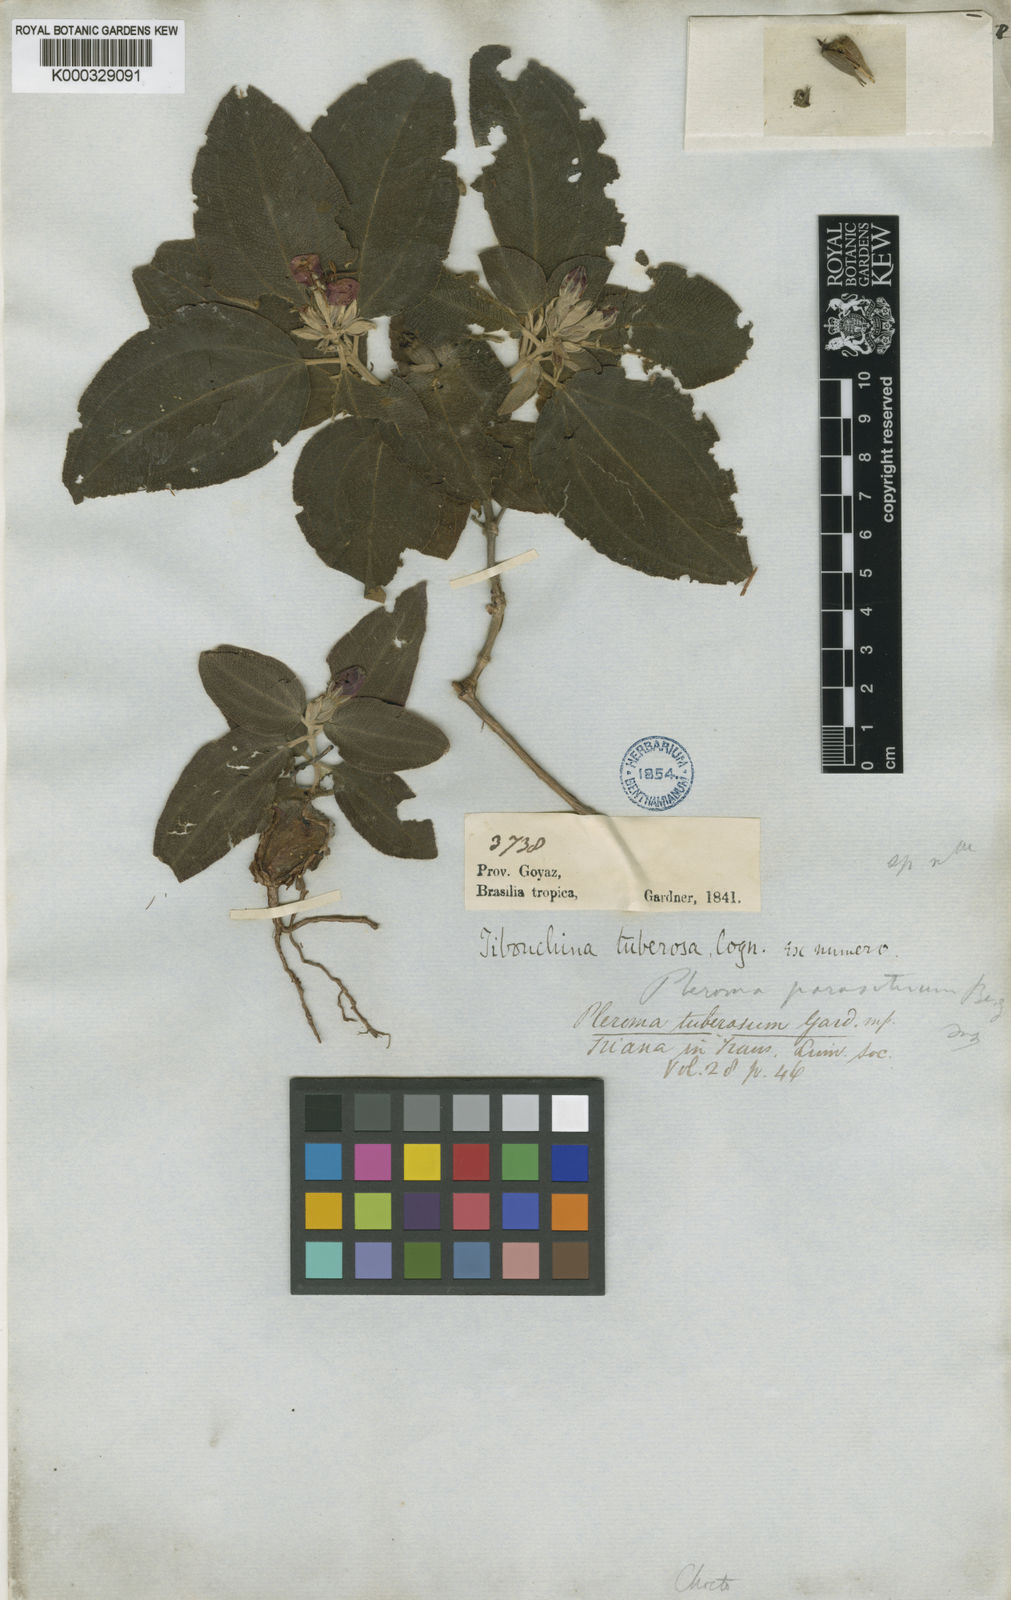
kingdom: Plantae
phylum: Tracheophyta
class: Magnoliopsida
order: Myrtales
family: Melastomataceae
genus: Pleroma
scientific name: Pleroma tuberosum
